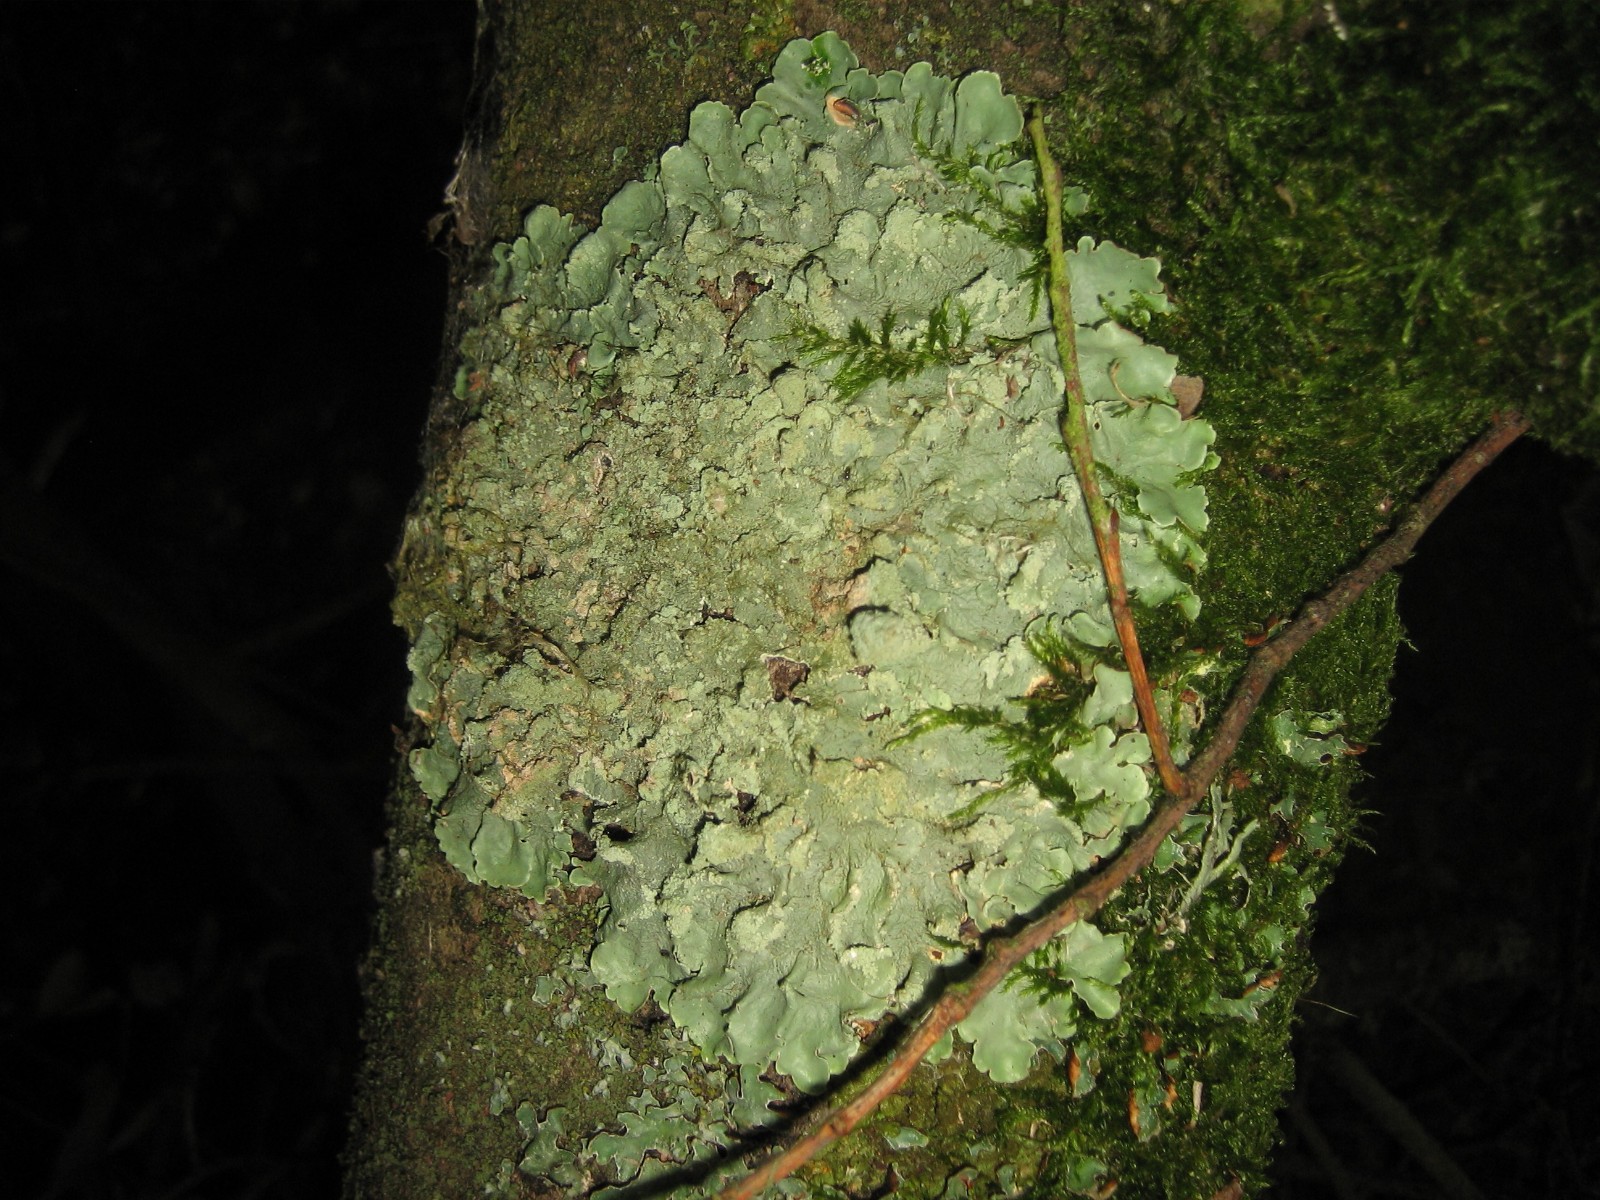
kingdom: Fungi
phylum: Ascomycota
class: Lecanoromycetes
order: Lecanorales
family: Parmeliaceae
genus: Flavoparmelia
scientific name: Flavoparmelia caperata
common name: gulgrøn skållav
